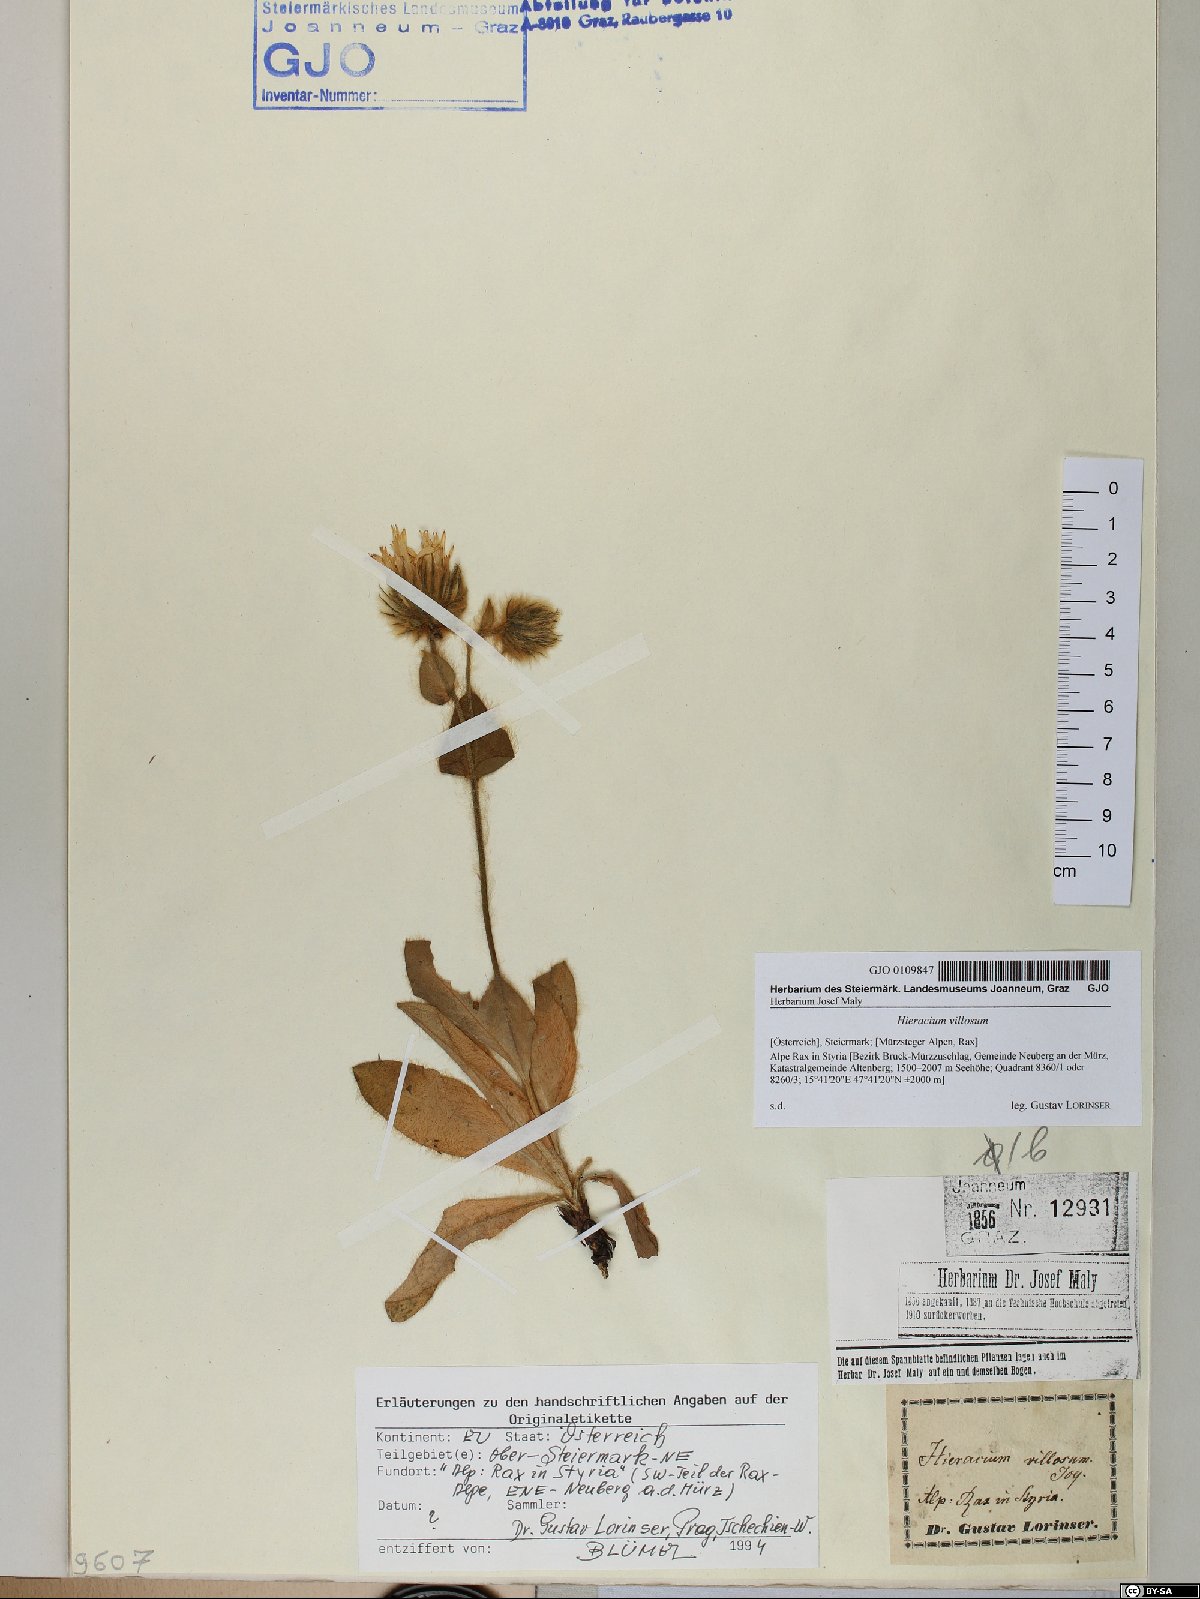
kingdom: Plantae
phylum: Tracheophyta
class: Magnoliopsida
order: Asterales
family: Asteraceae
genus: Hieracium
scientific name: Hieracium villosum
